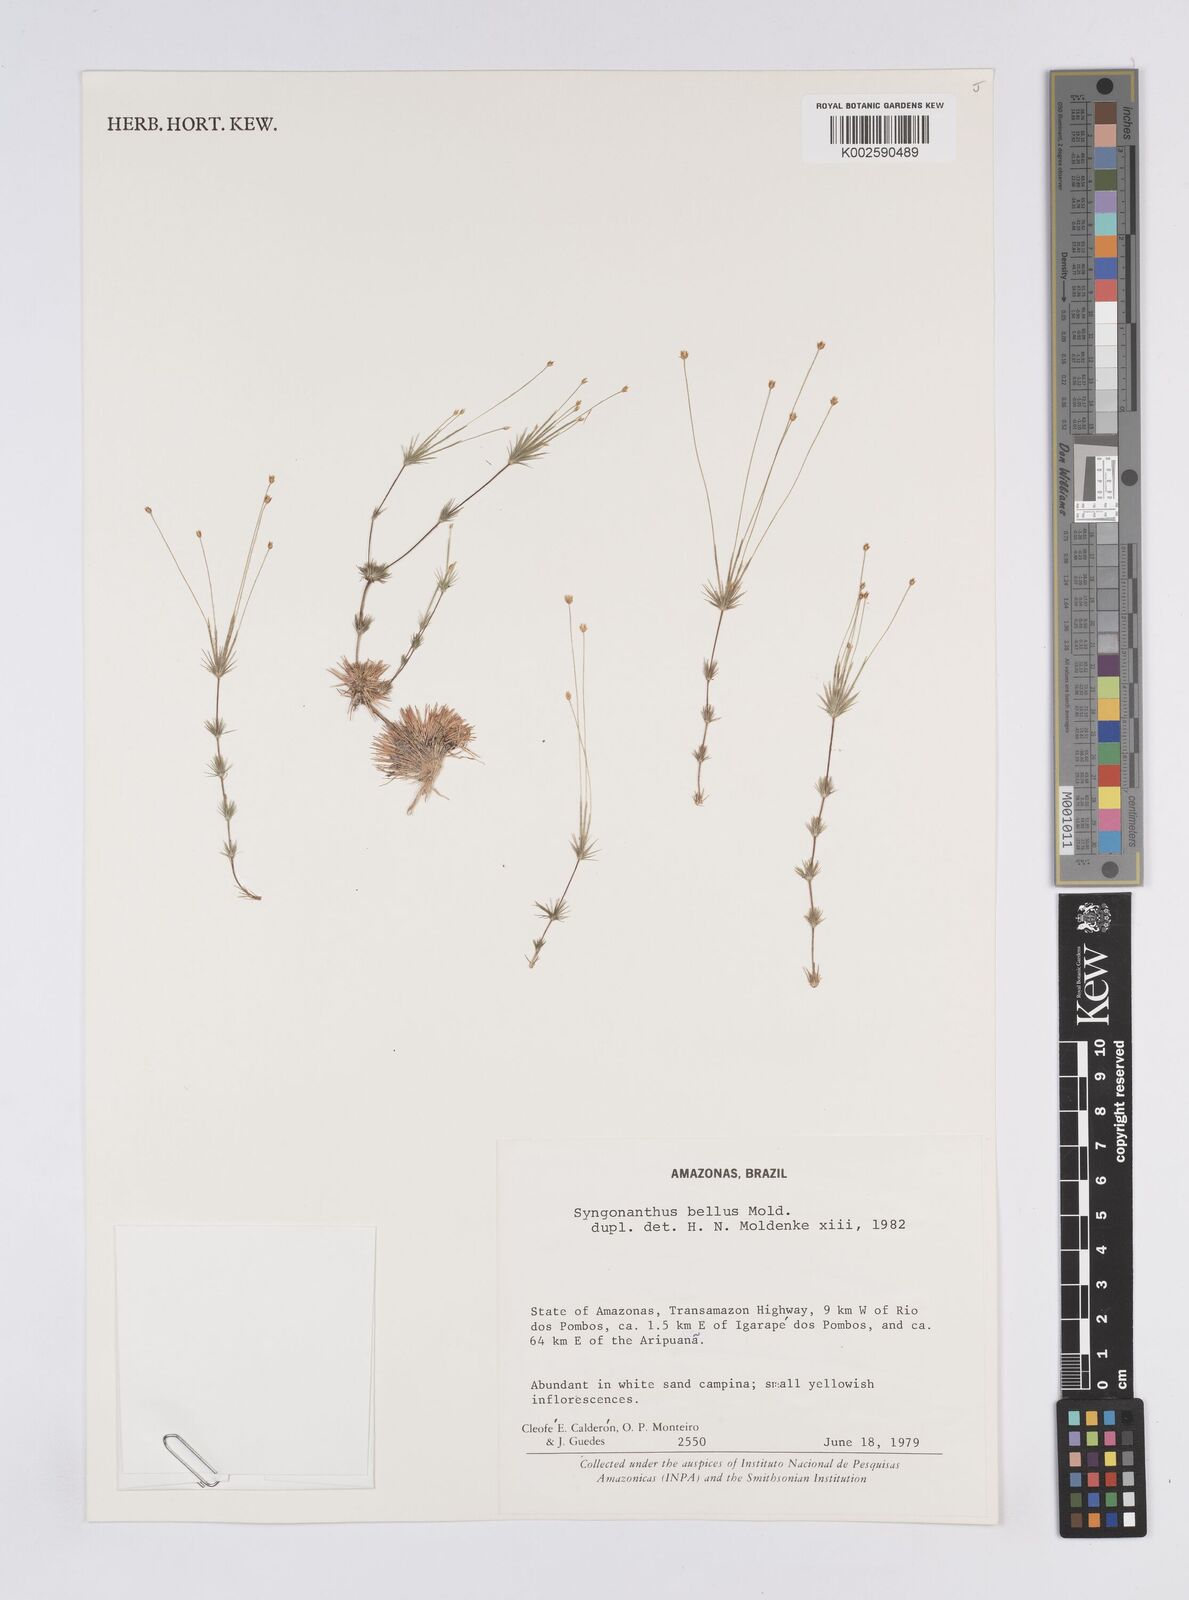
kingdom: Plantae
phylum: Tracheophyta
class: Liliopsida
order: Poales
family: Eriocaulaceae
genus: Syngonanthus
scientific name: Syngonanthus bellus
